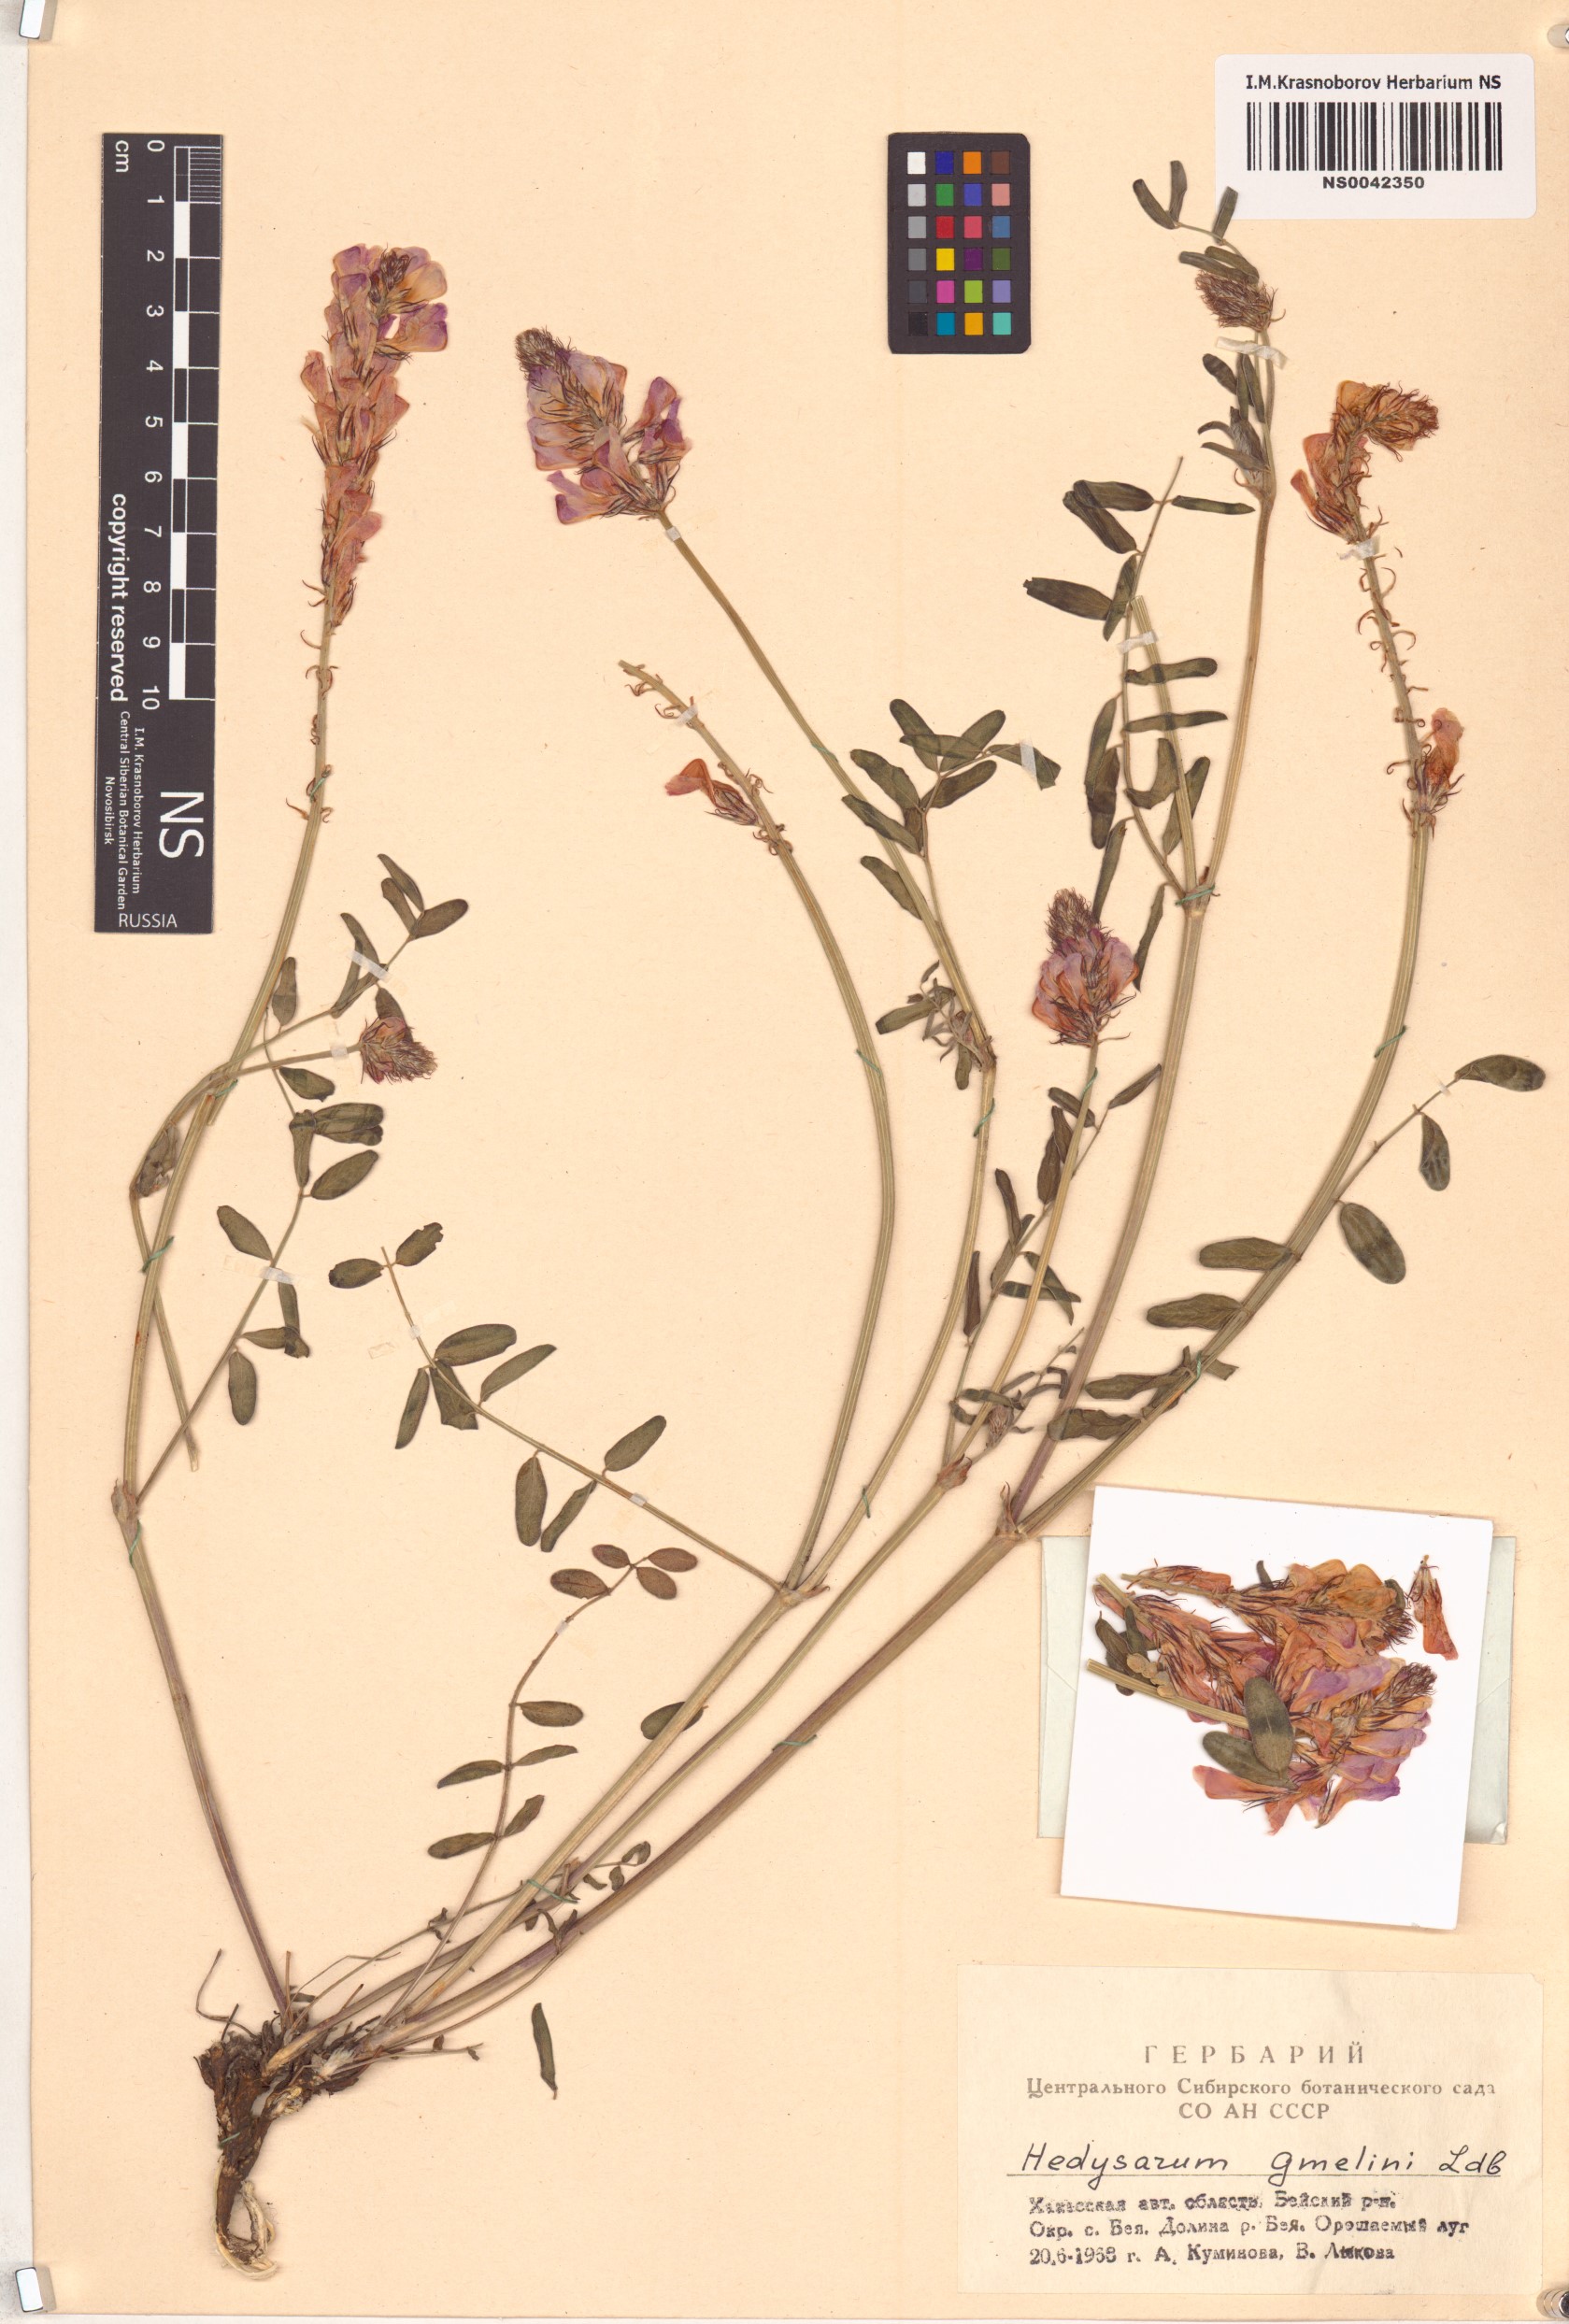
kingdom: Plantae
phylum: Tracheophyta
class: Magnoliopsida
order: Fabales
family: Fabaceae
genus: Hedysarum
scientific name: Hedysarum gmelinii
